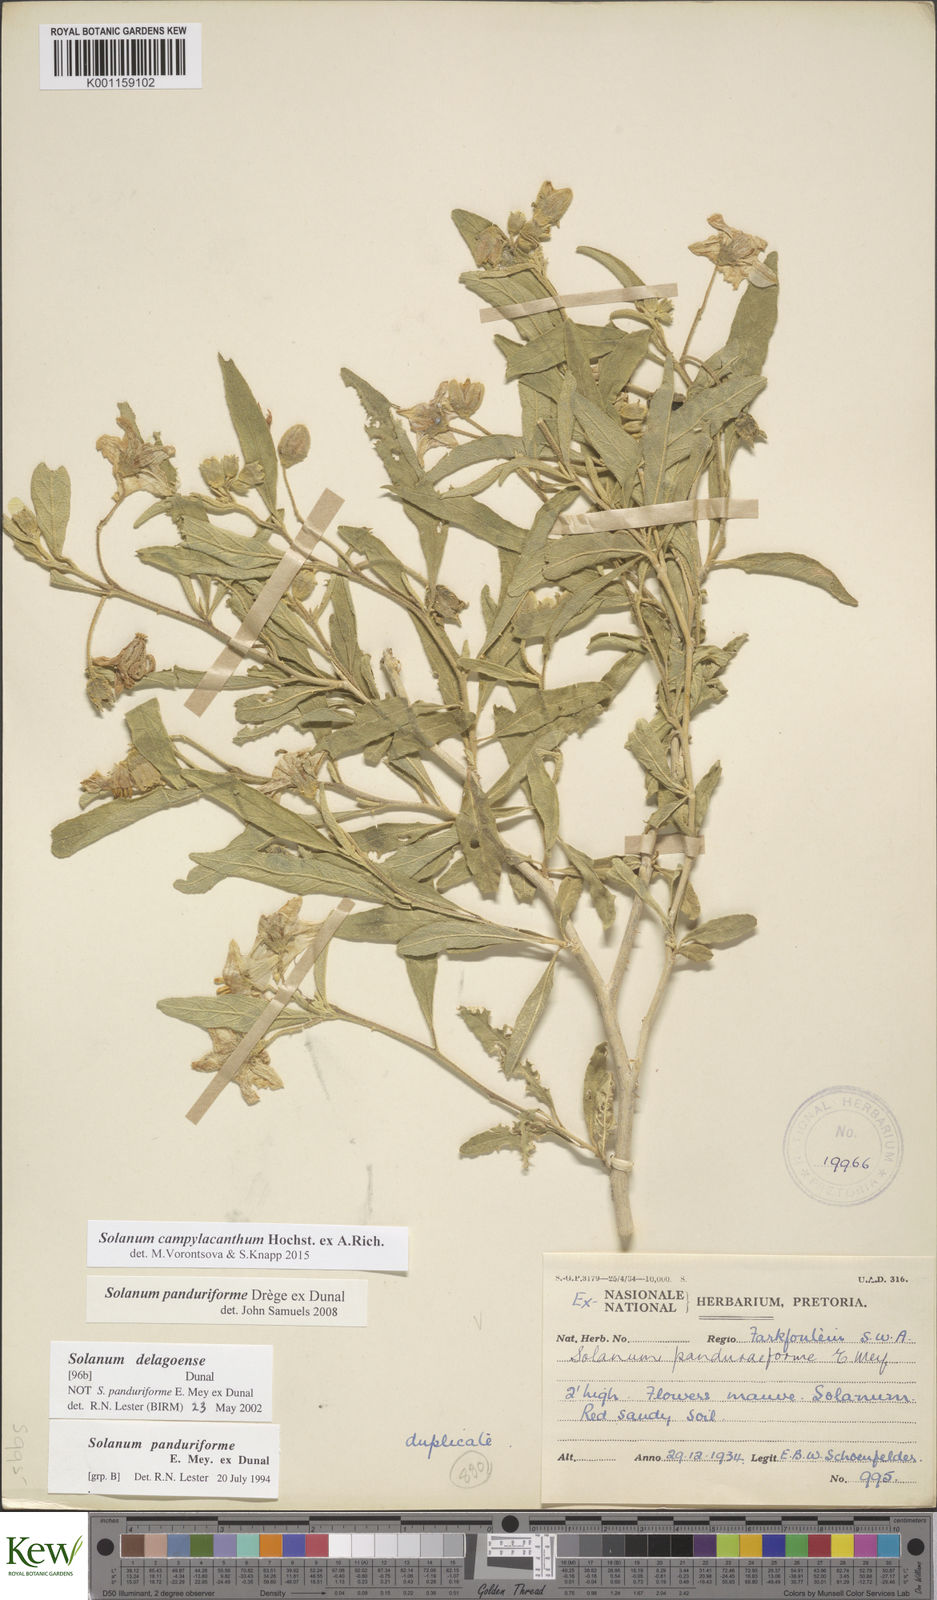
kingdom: Plantae
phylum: Tracheophyta
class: Magnoliopsida
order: Solanales
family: Solanaceae
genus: Solanum
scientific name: Solanum campylacanthum
